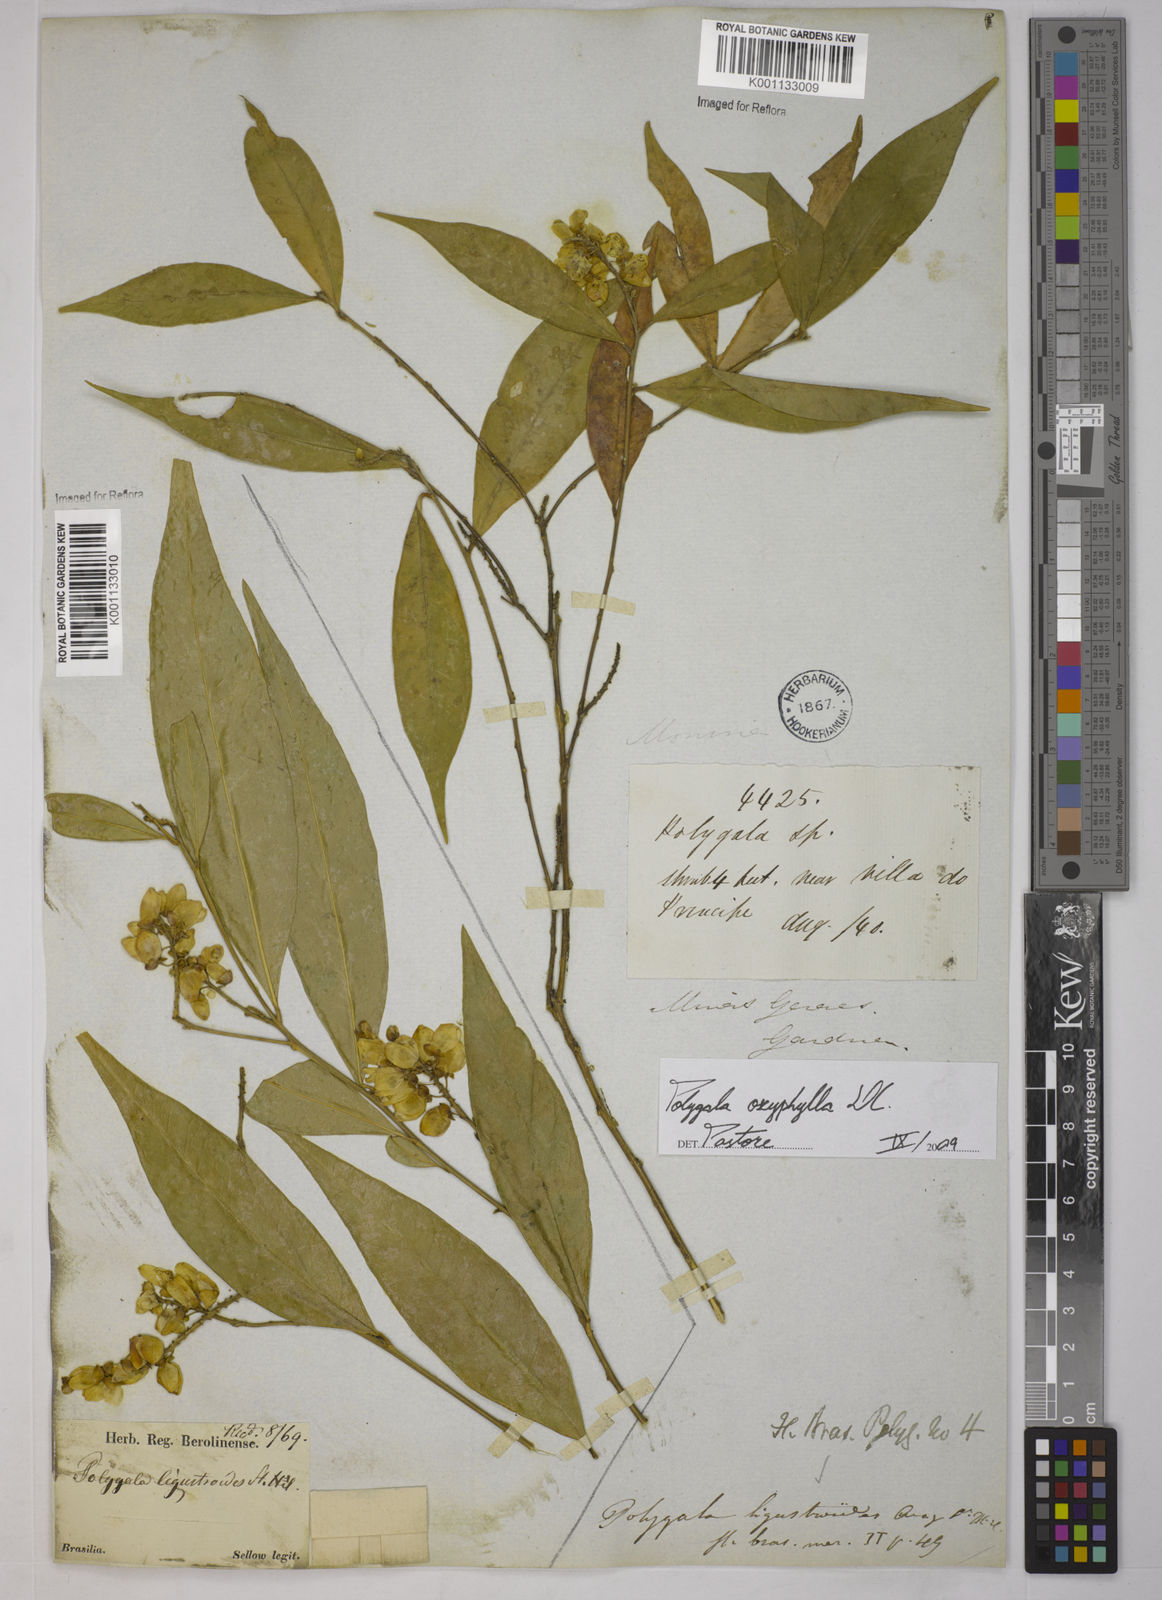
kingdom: Plantae
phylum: Tracheophyta
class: Magnoliopsida
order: Fabales
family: Polygalaceae
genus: Caamembeca
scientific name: Caamembeca oxyphylla
